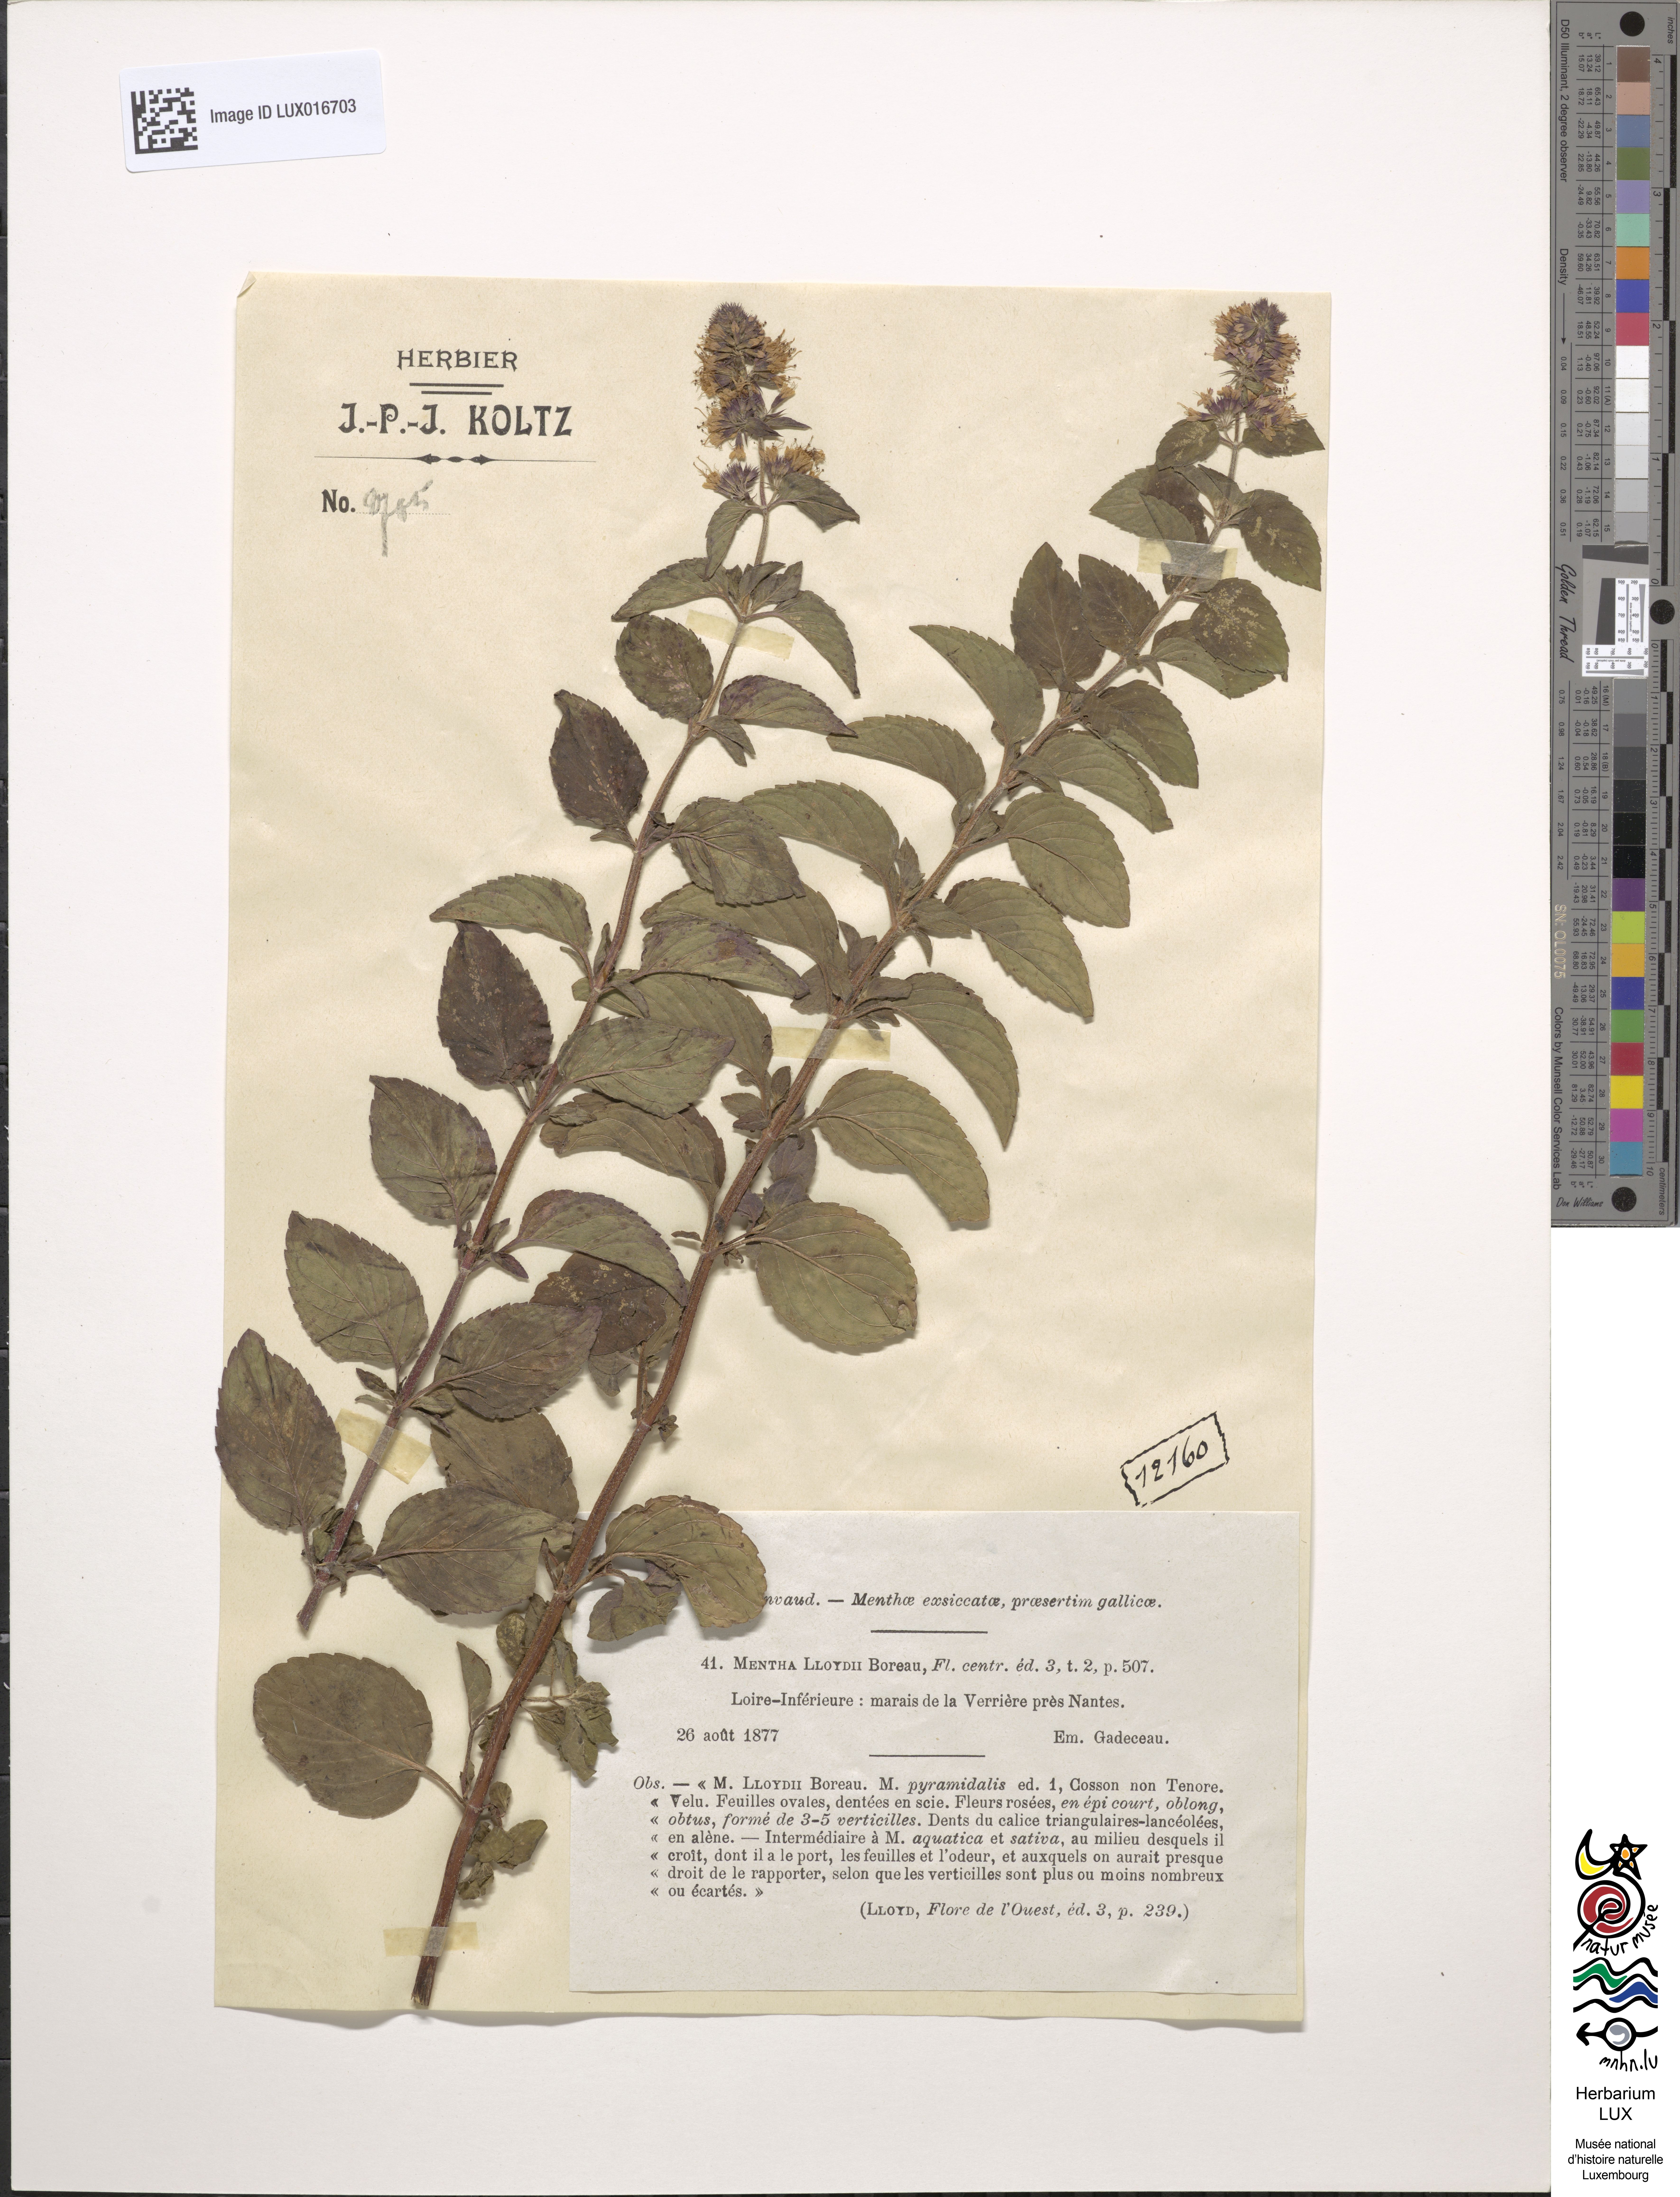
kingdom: Plantae
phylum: Tracheophyta
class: Magnoliopsida
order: Lamiales
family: Lamiaceae
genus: Mentha
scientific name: Mentha aquatica
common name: Water mint
